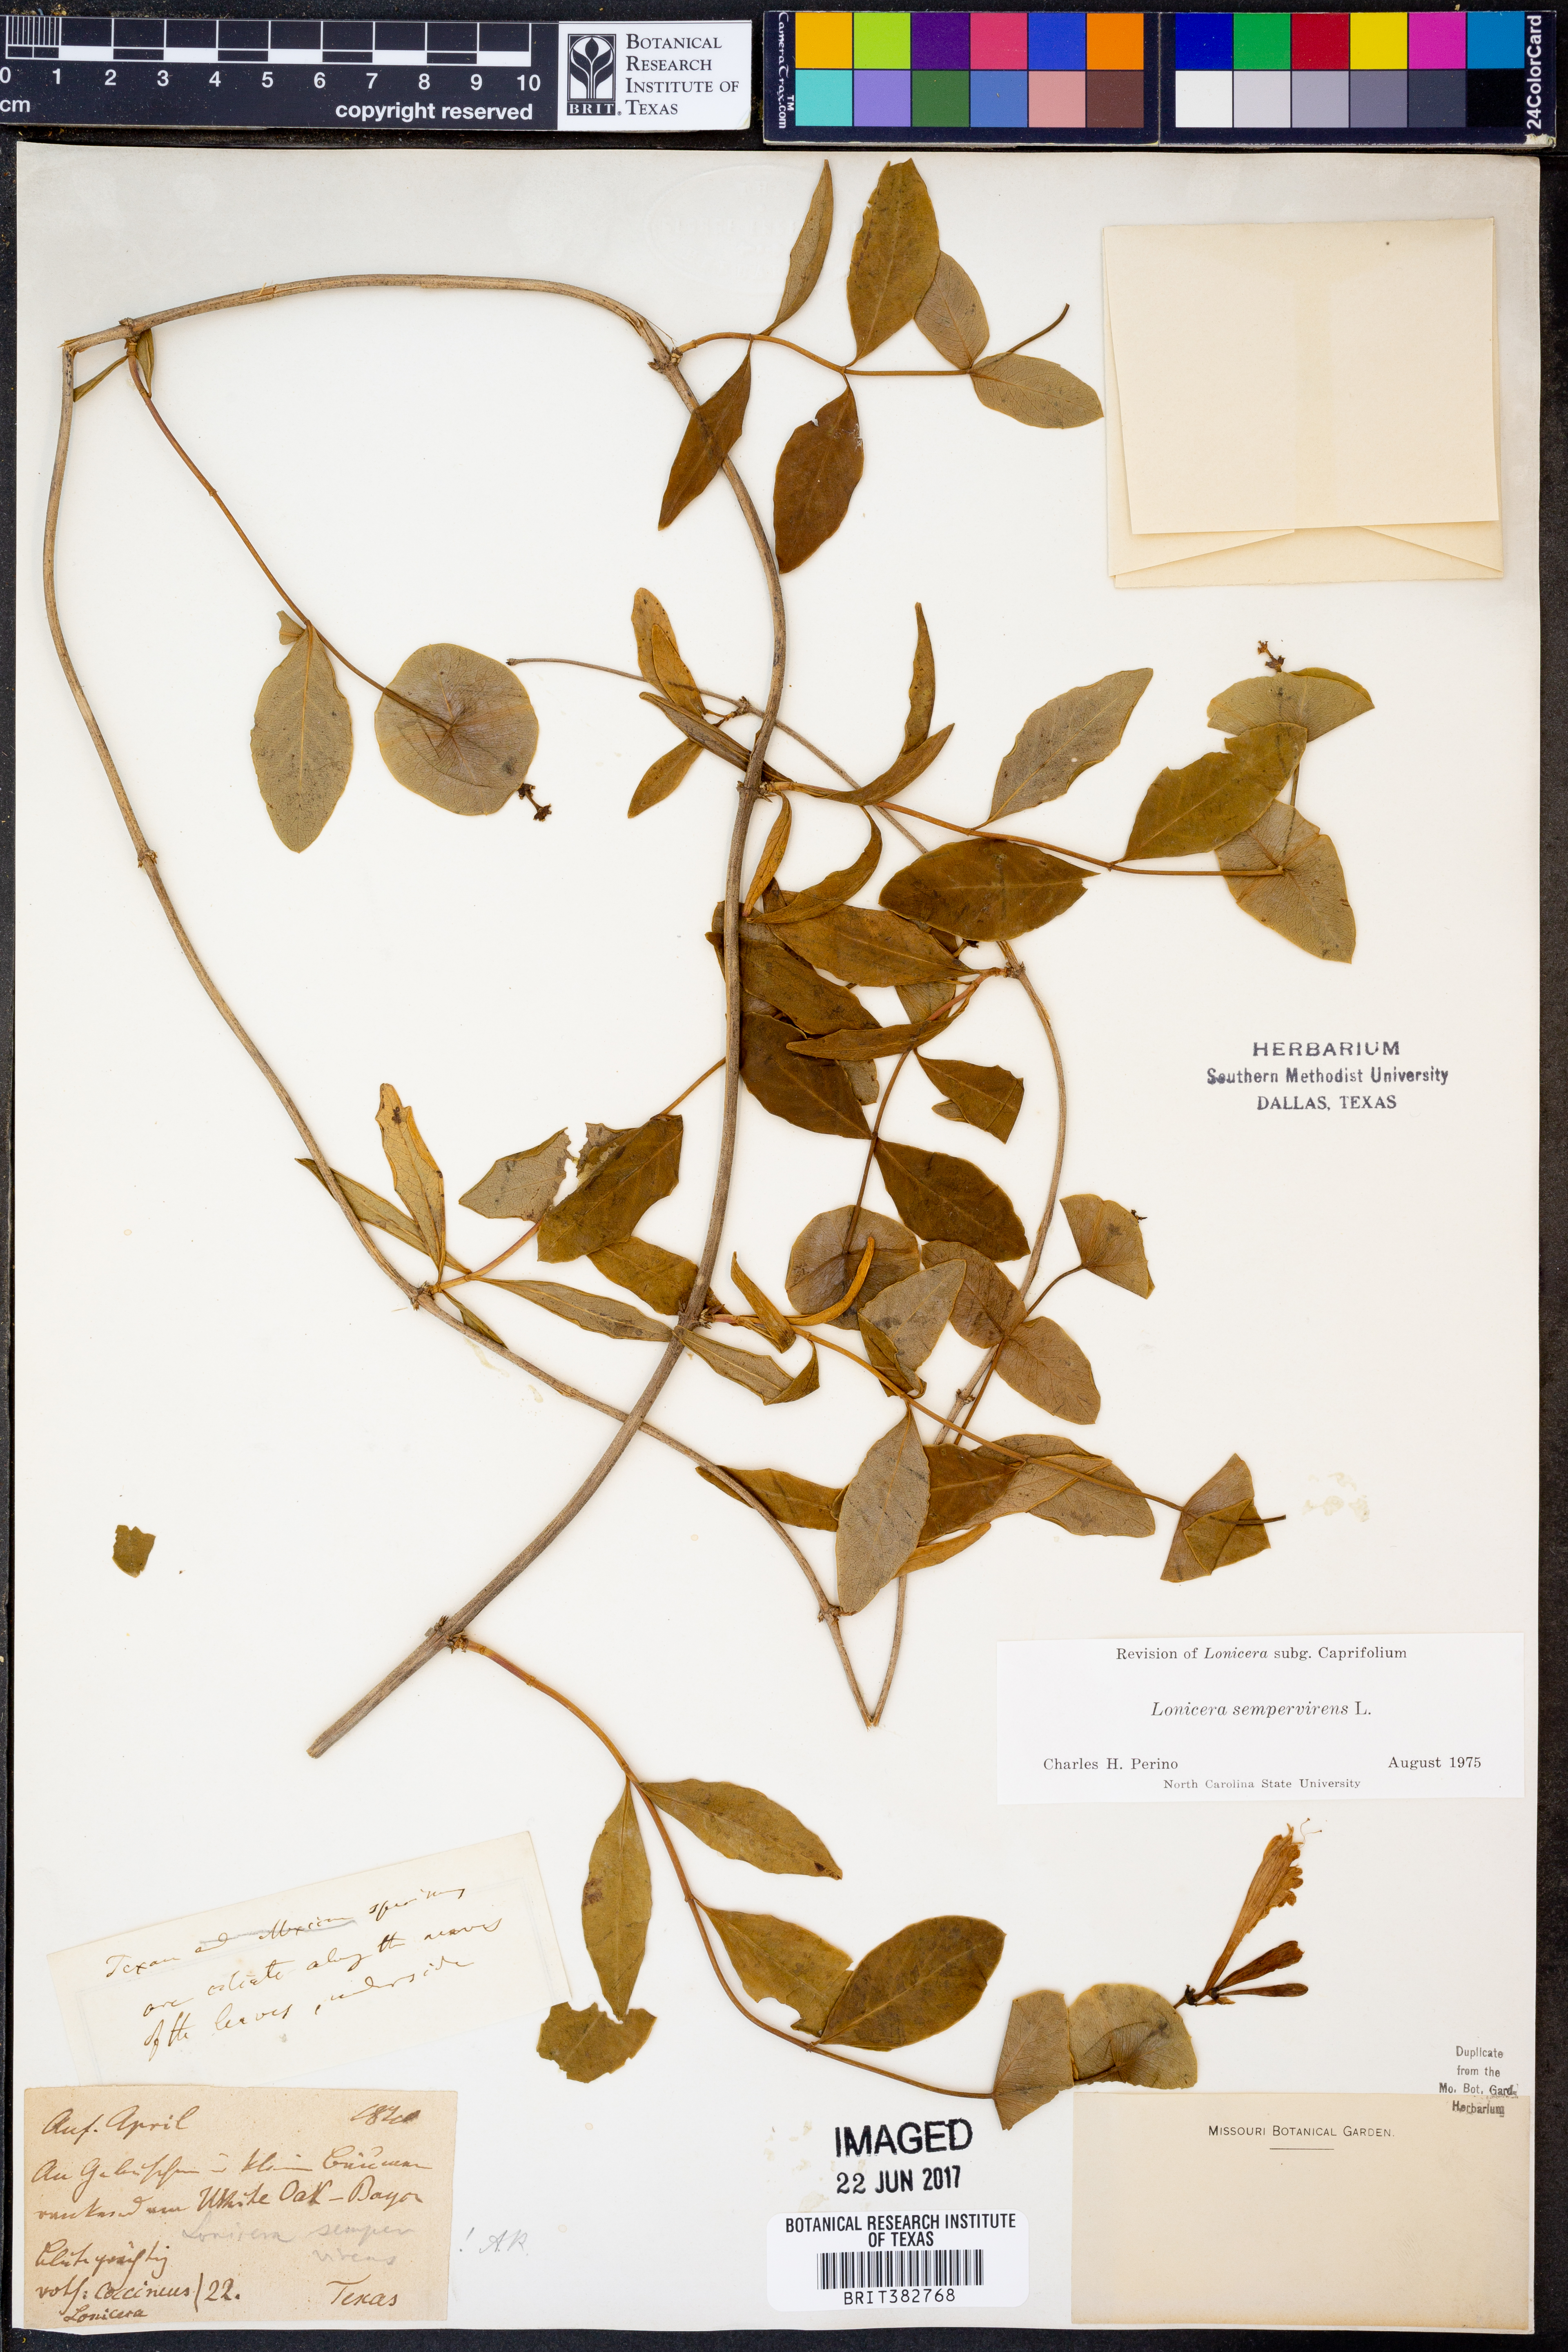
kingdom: Plantae
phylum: Tracheophyta
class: Magnoliopsida
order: Dipsacales
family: Caprifoliaceae
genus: Lonicera
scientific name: Lonicera sempervirens
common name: Coral honeysuckle
